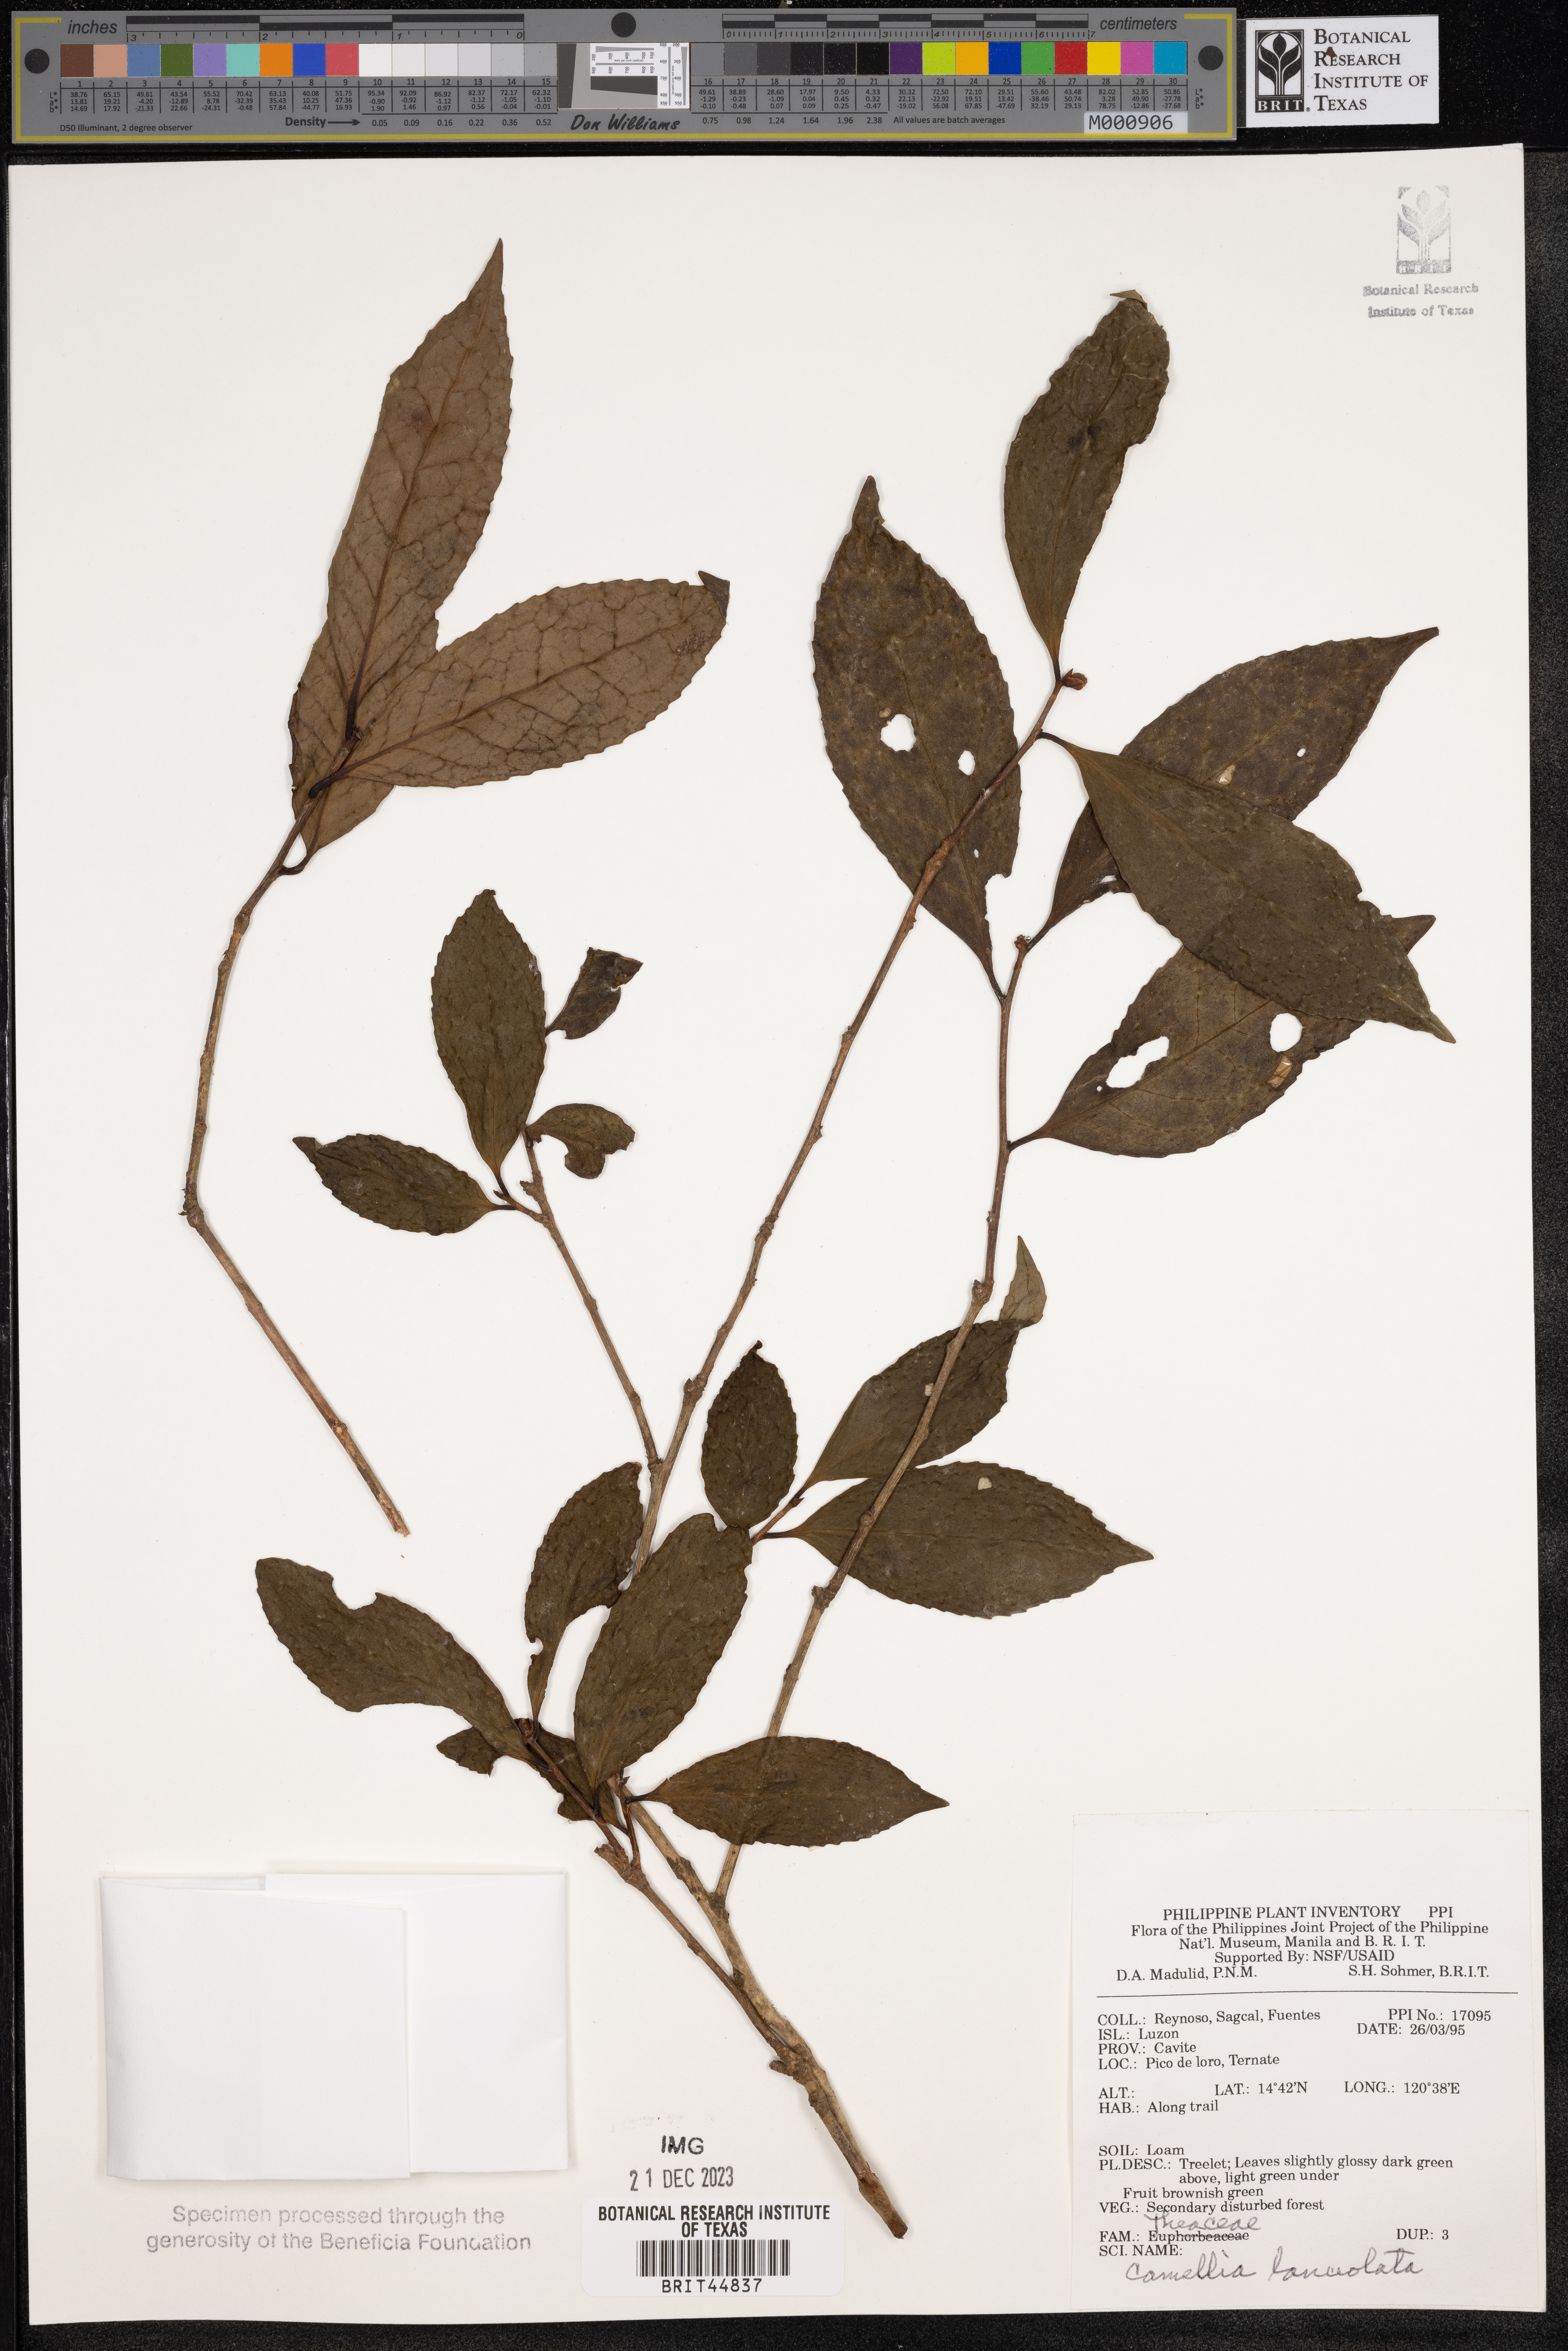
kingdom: Plantae
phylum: Tracheophyta
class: Magnoliopsida
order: Ericales
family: Theaceae
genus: Camellia
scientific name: Camellia lanceolata
